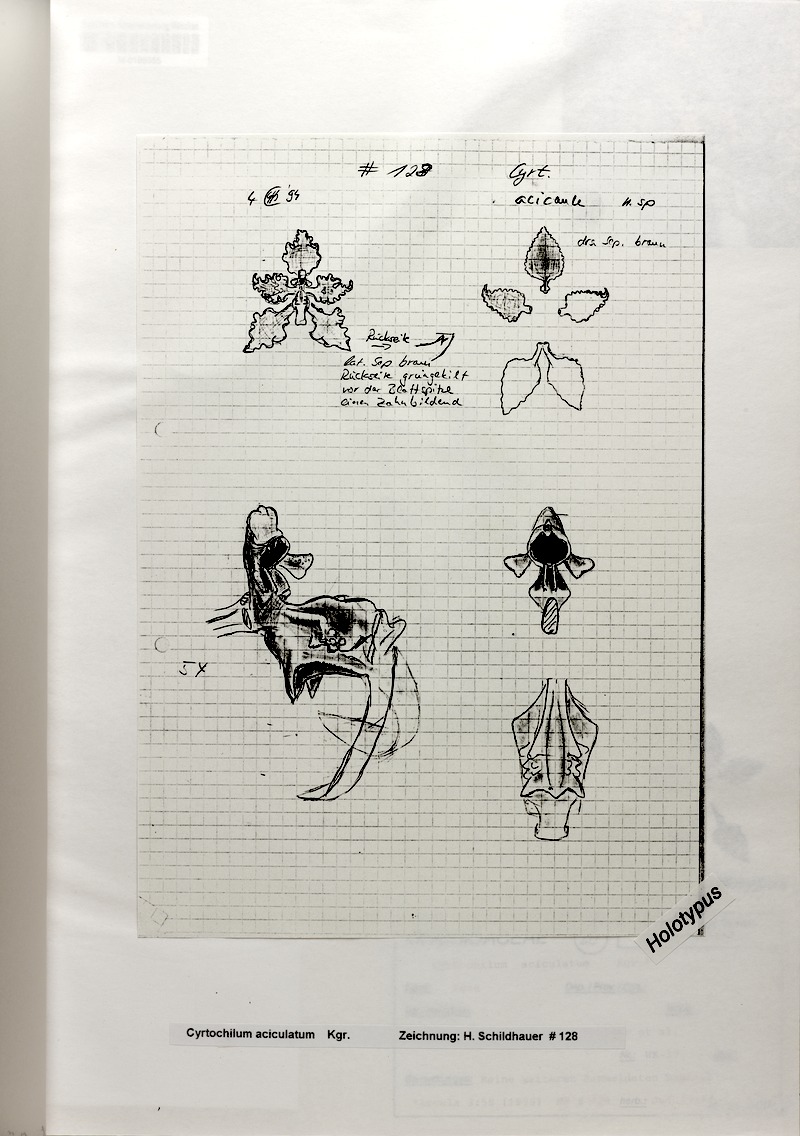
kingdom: Plantae
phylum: Tracheophyta
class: Liliopsida
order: Asparagales
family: Orchidaceae
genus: Cyrtochilum
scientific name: Cyrtochilum gargantua
